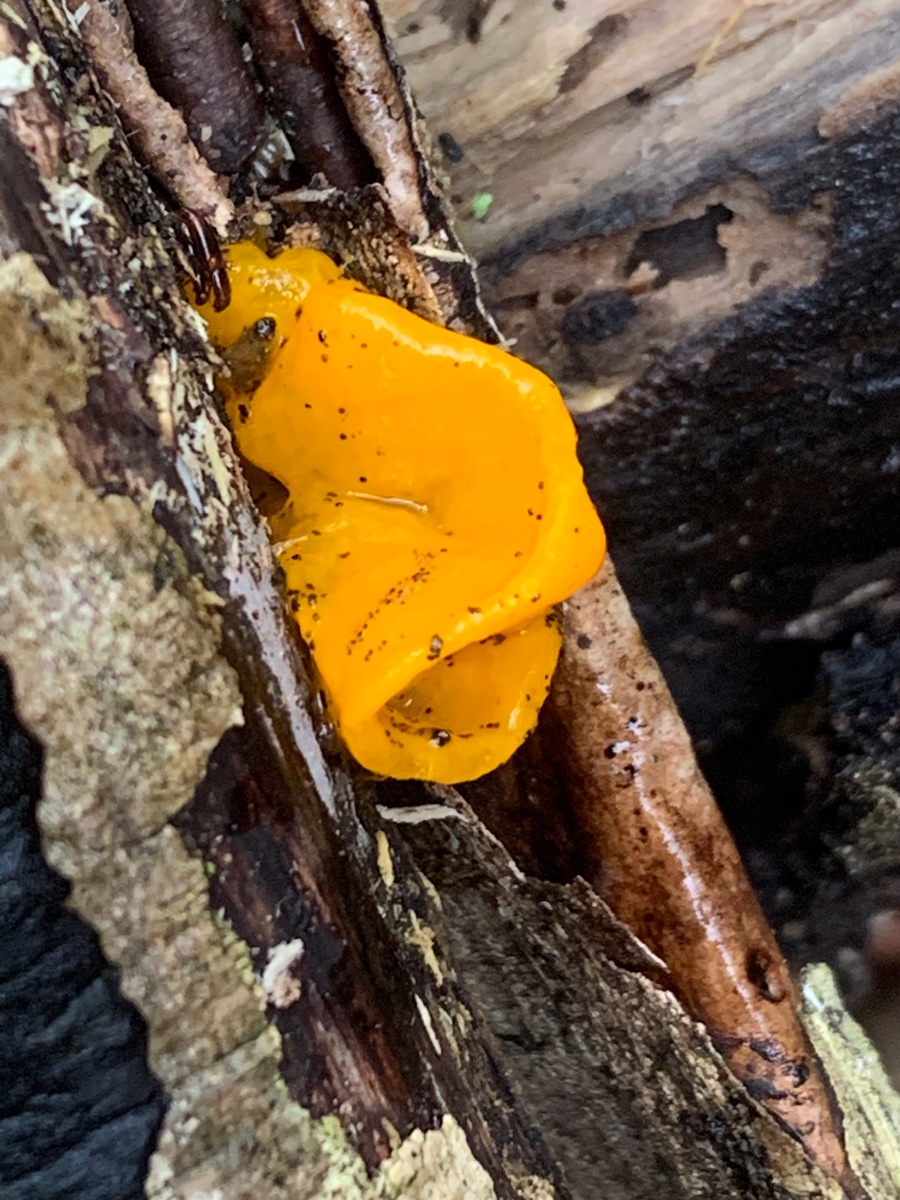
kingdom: Fungi
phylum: Basidiomycota
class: Tremellomycetes
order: Tremellales
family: Tremellaceae
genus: Tremella
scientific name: Tremella mesenterica
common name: gul bævresvamp
